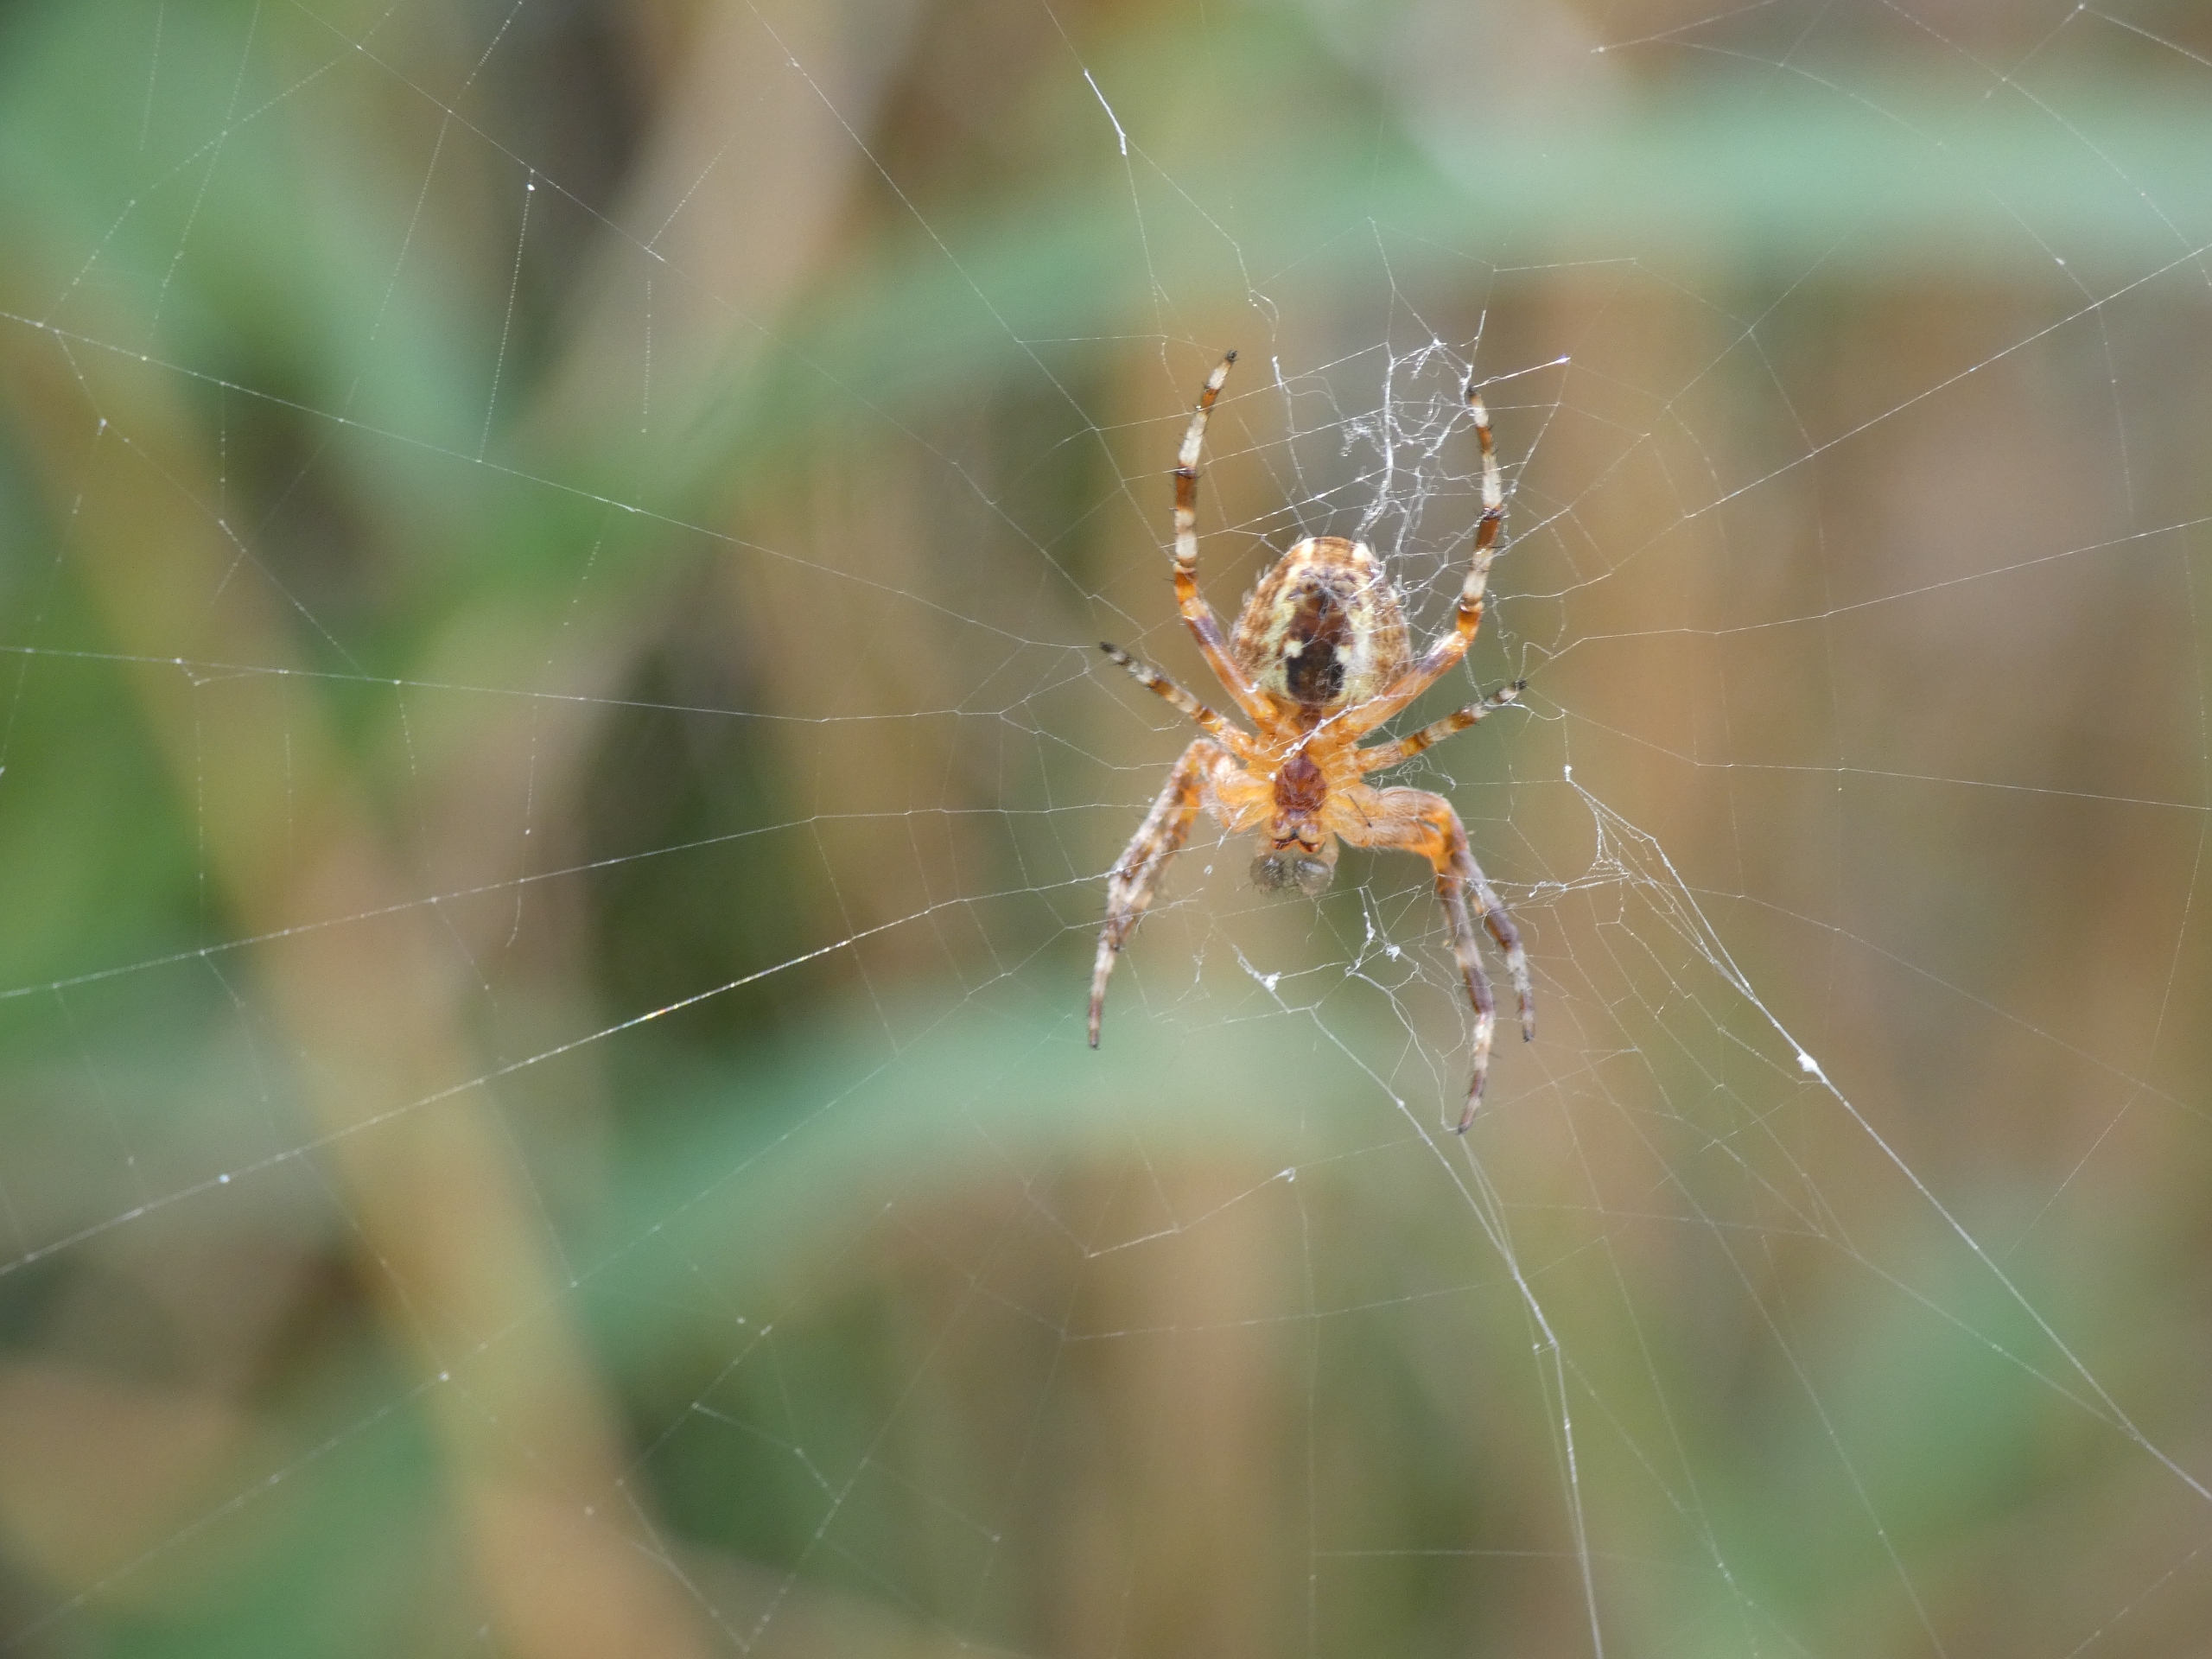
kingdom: Animalia
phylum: Arthropoda
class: Arachnida
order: Araneae
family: Araneidae
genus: Araneus
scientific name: Araneus diadematus
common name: Korsedderkop
